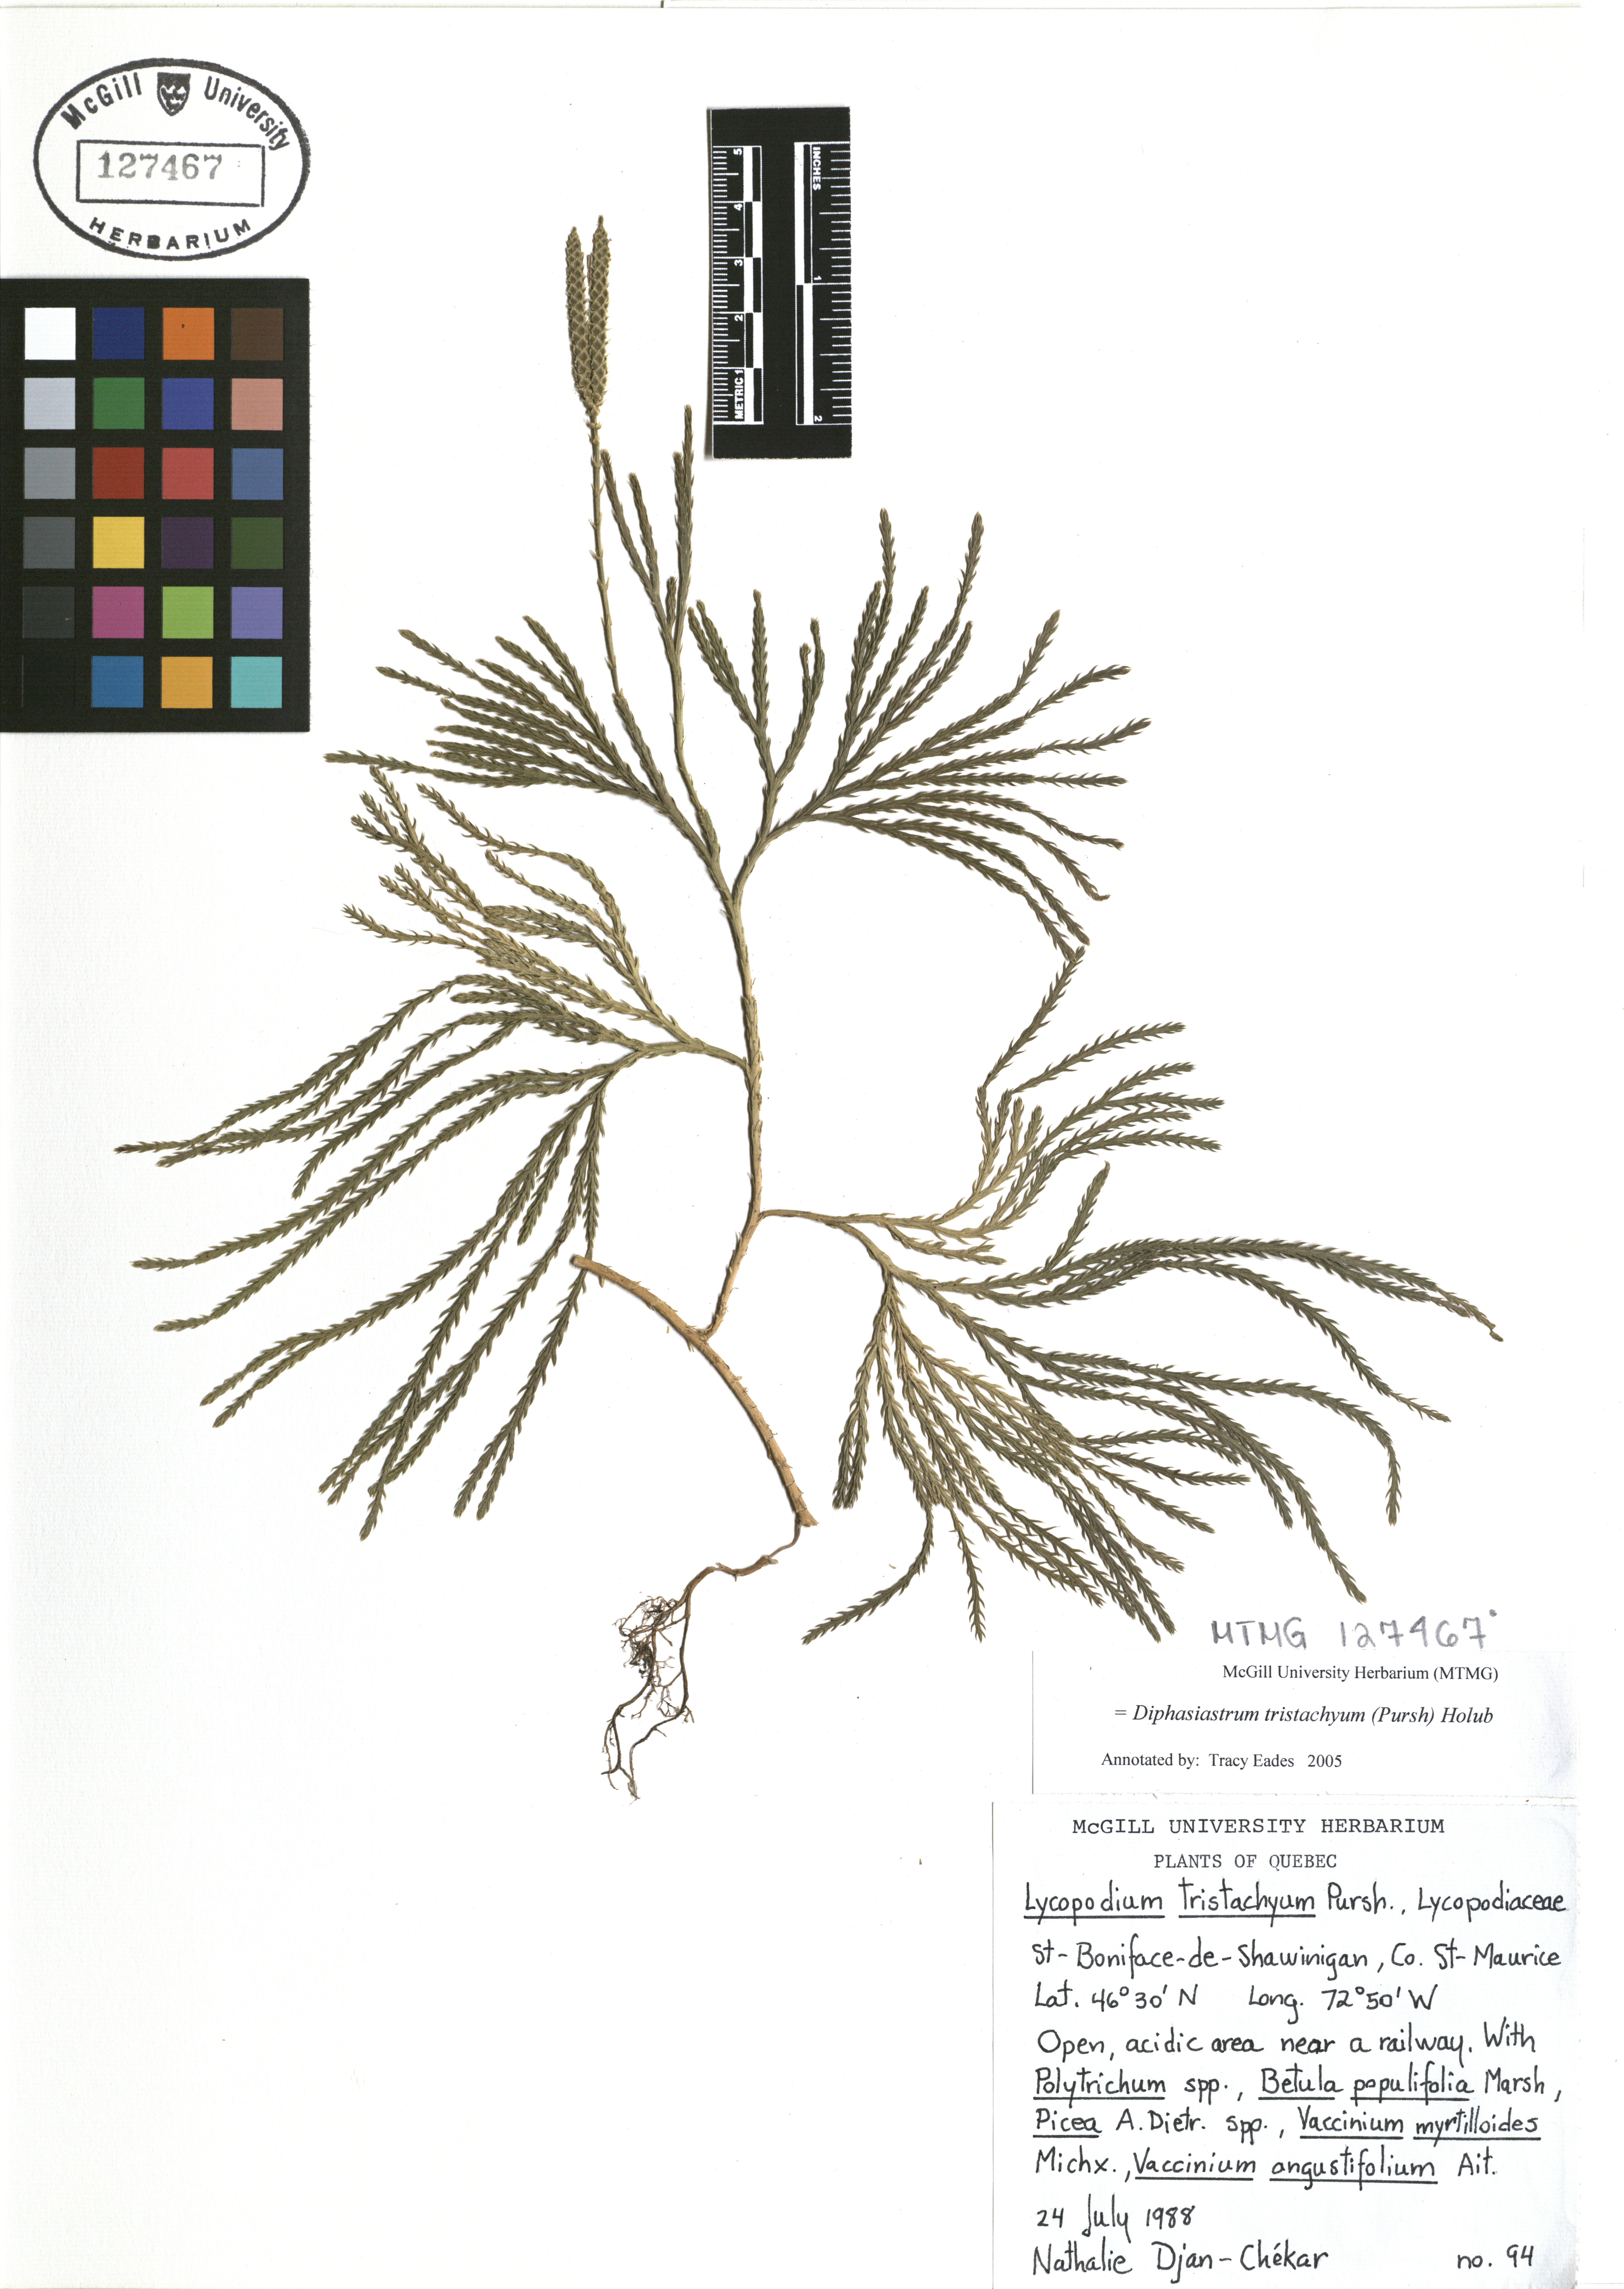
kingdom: Plantae
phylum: Tracheophyta
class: Lycopodiopsida
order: Lycopodiales
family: Lycopodiaceae
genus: Diphasiastrum
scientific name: Diphasiastrum tristachyum
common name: Blue ground-cedar
